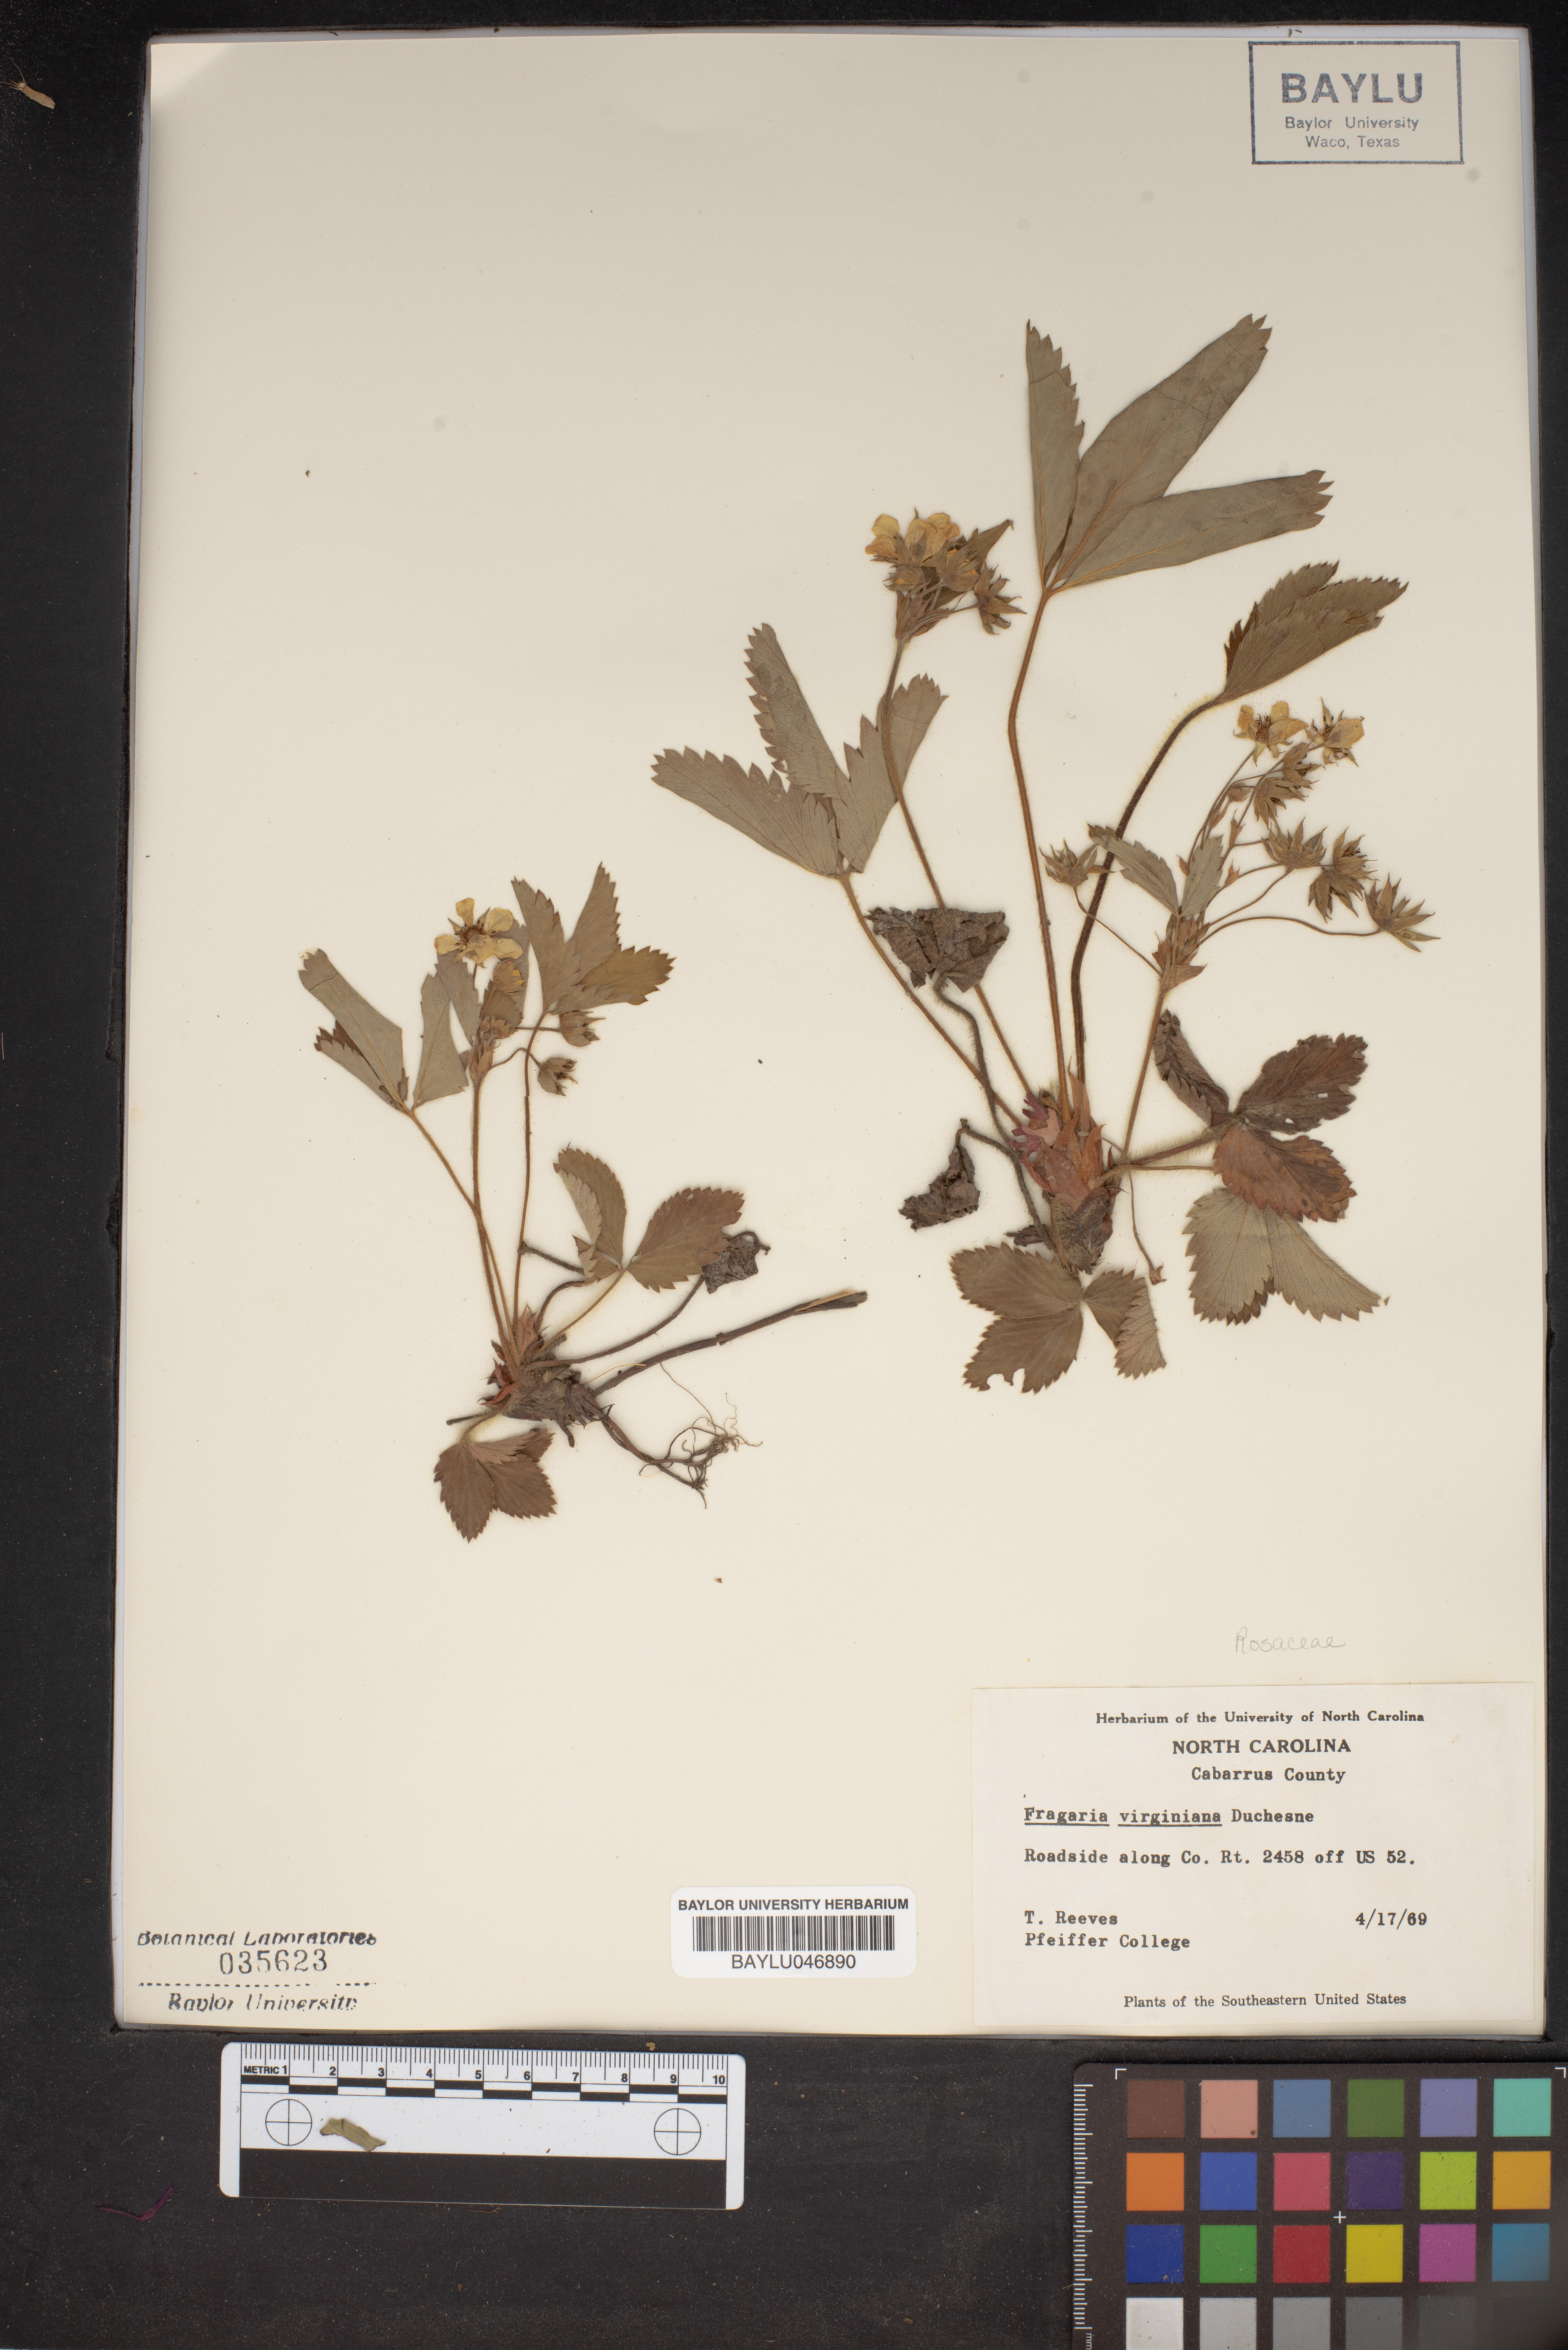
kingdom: Plantae
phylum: Tracheophyta
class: Magnoliopsida
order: Rosales
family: Rosaceae
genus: Fragaria
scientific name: Fragaria virginiana
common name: Thickleaved wild strawberry
